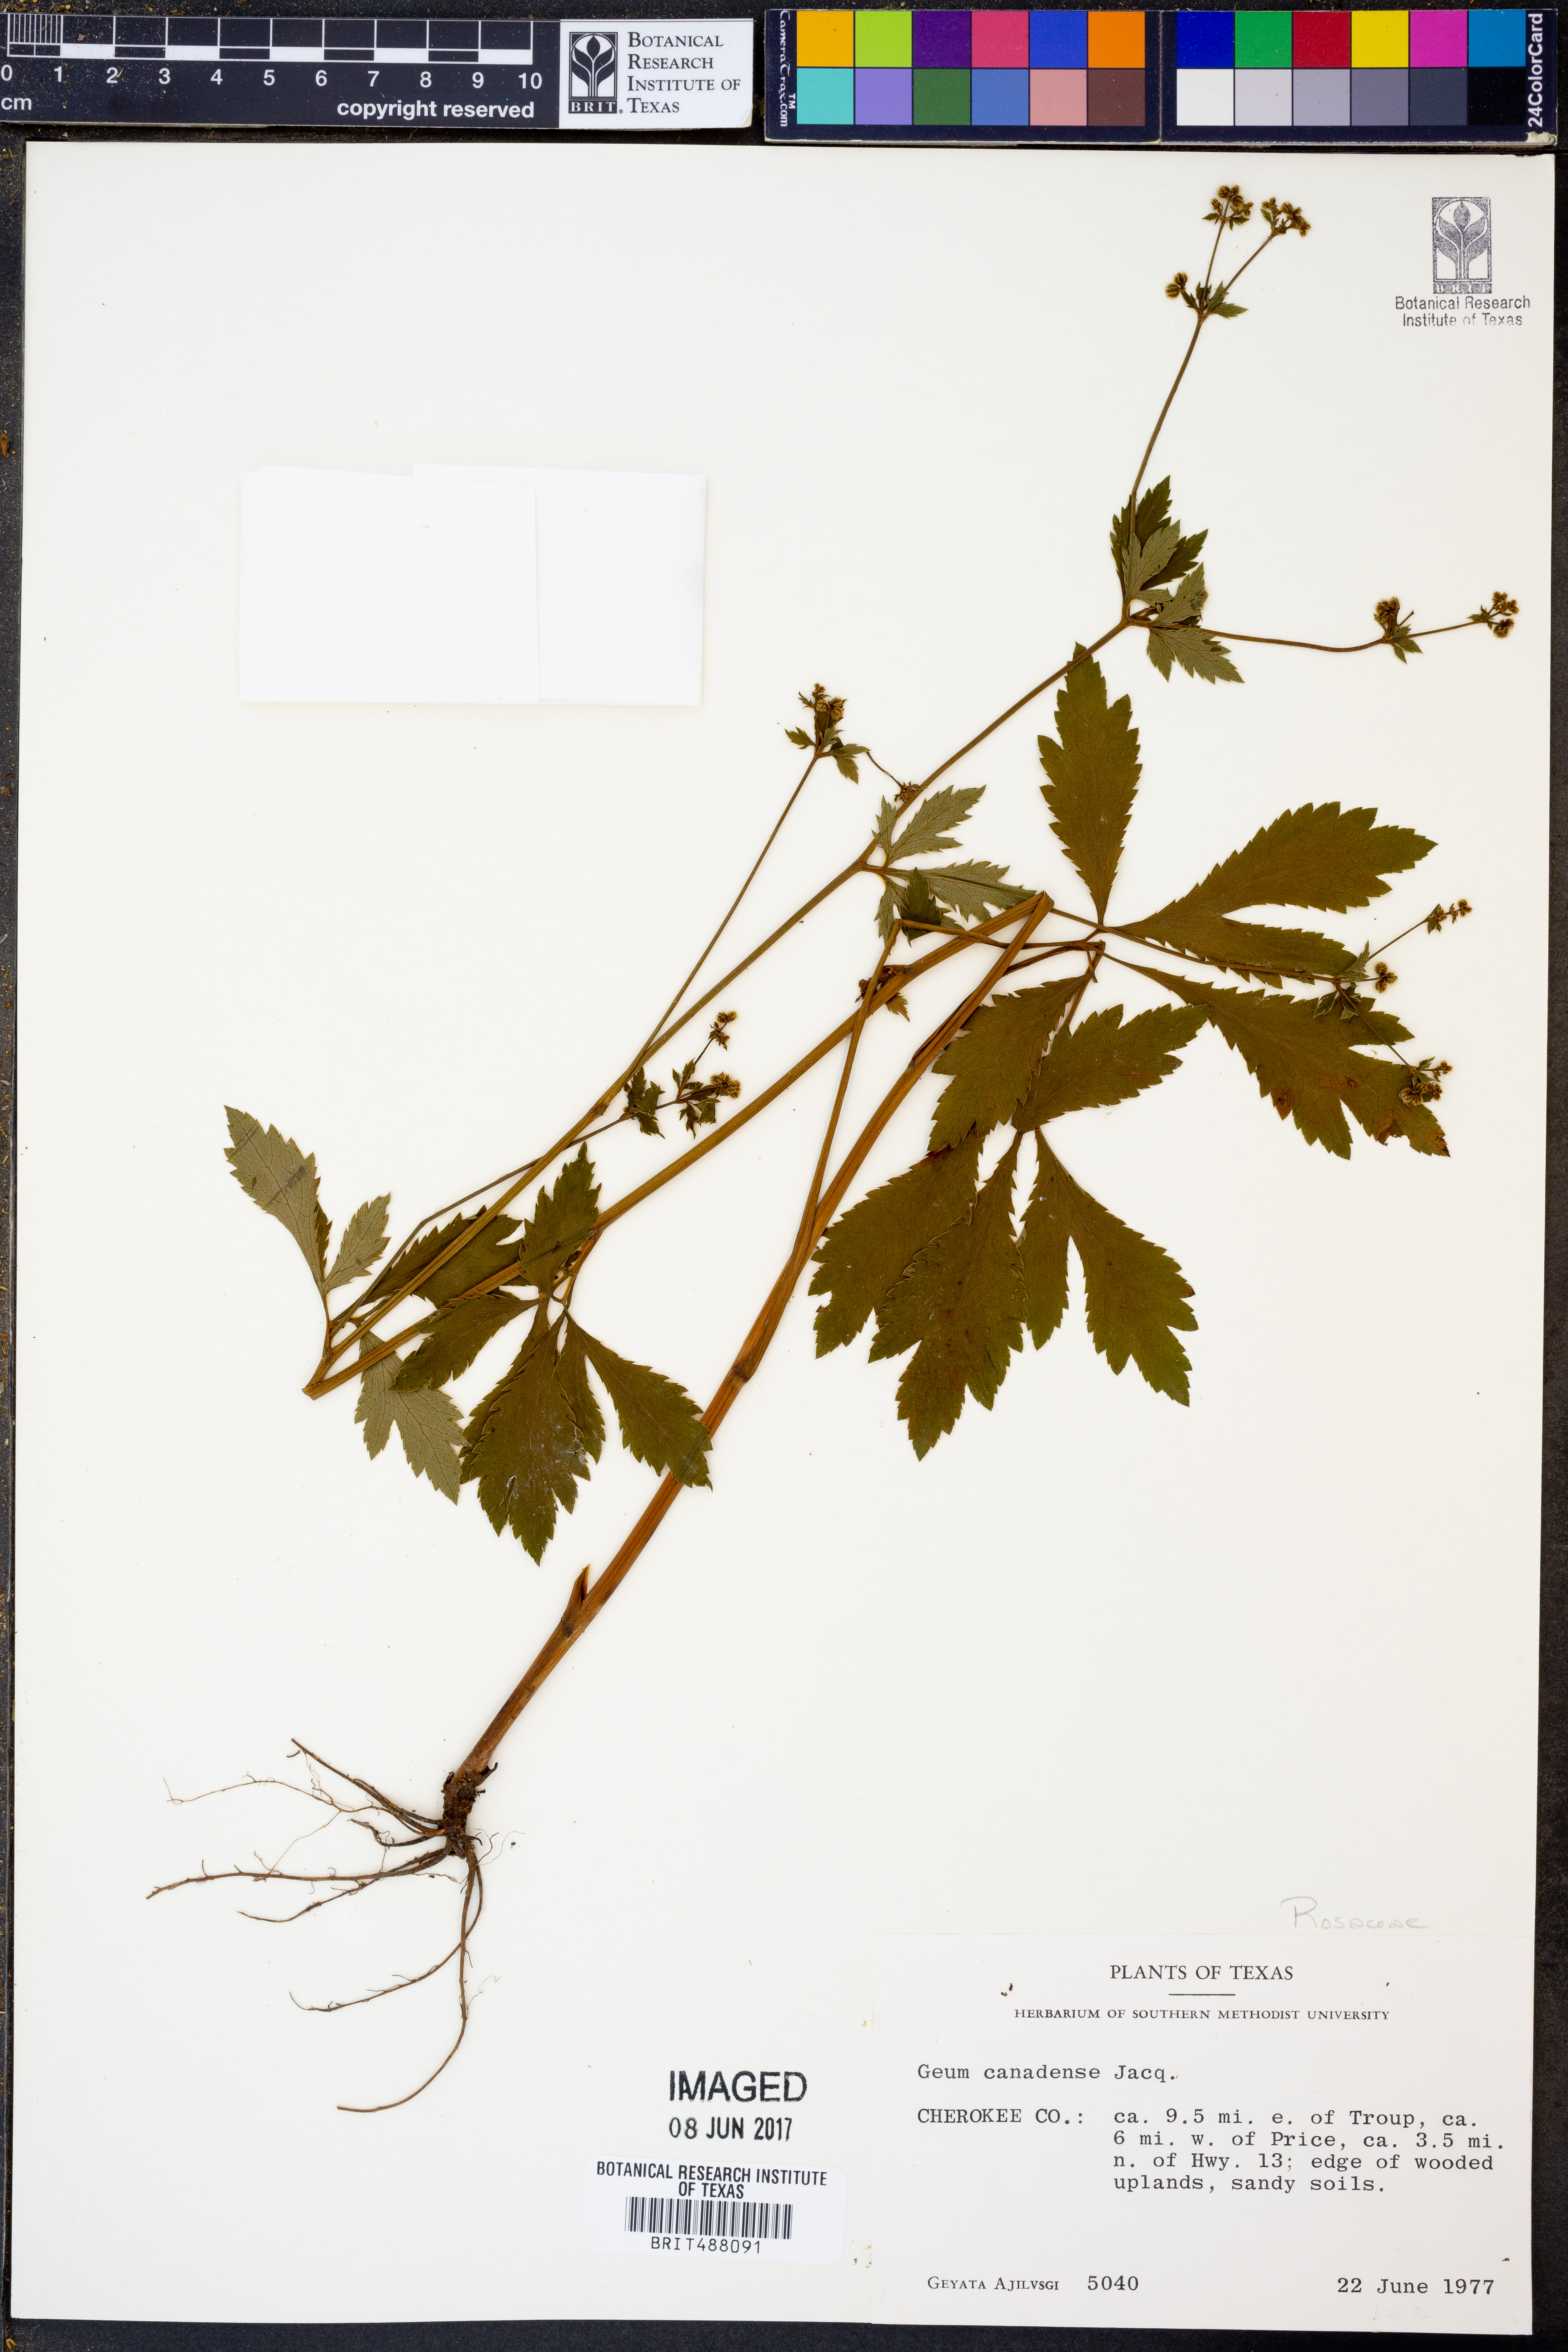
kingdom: Plantae
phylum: Tracheophyta
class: Magnoliopsida
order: Rosales
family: Rosaceae
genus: Geum
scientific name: Geum canadense
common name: White avens
